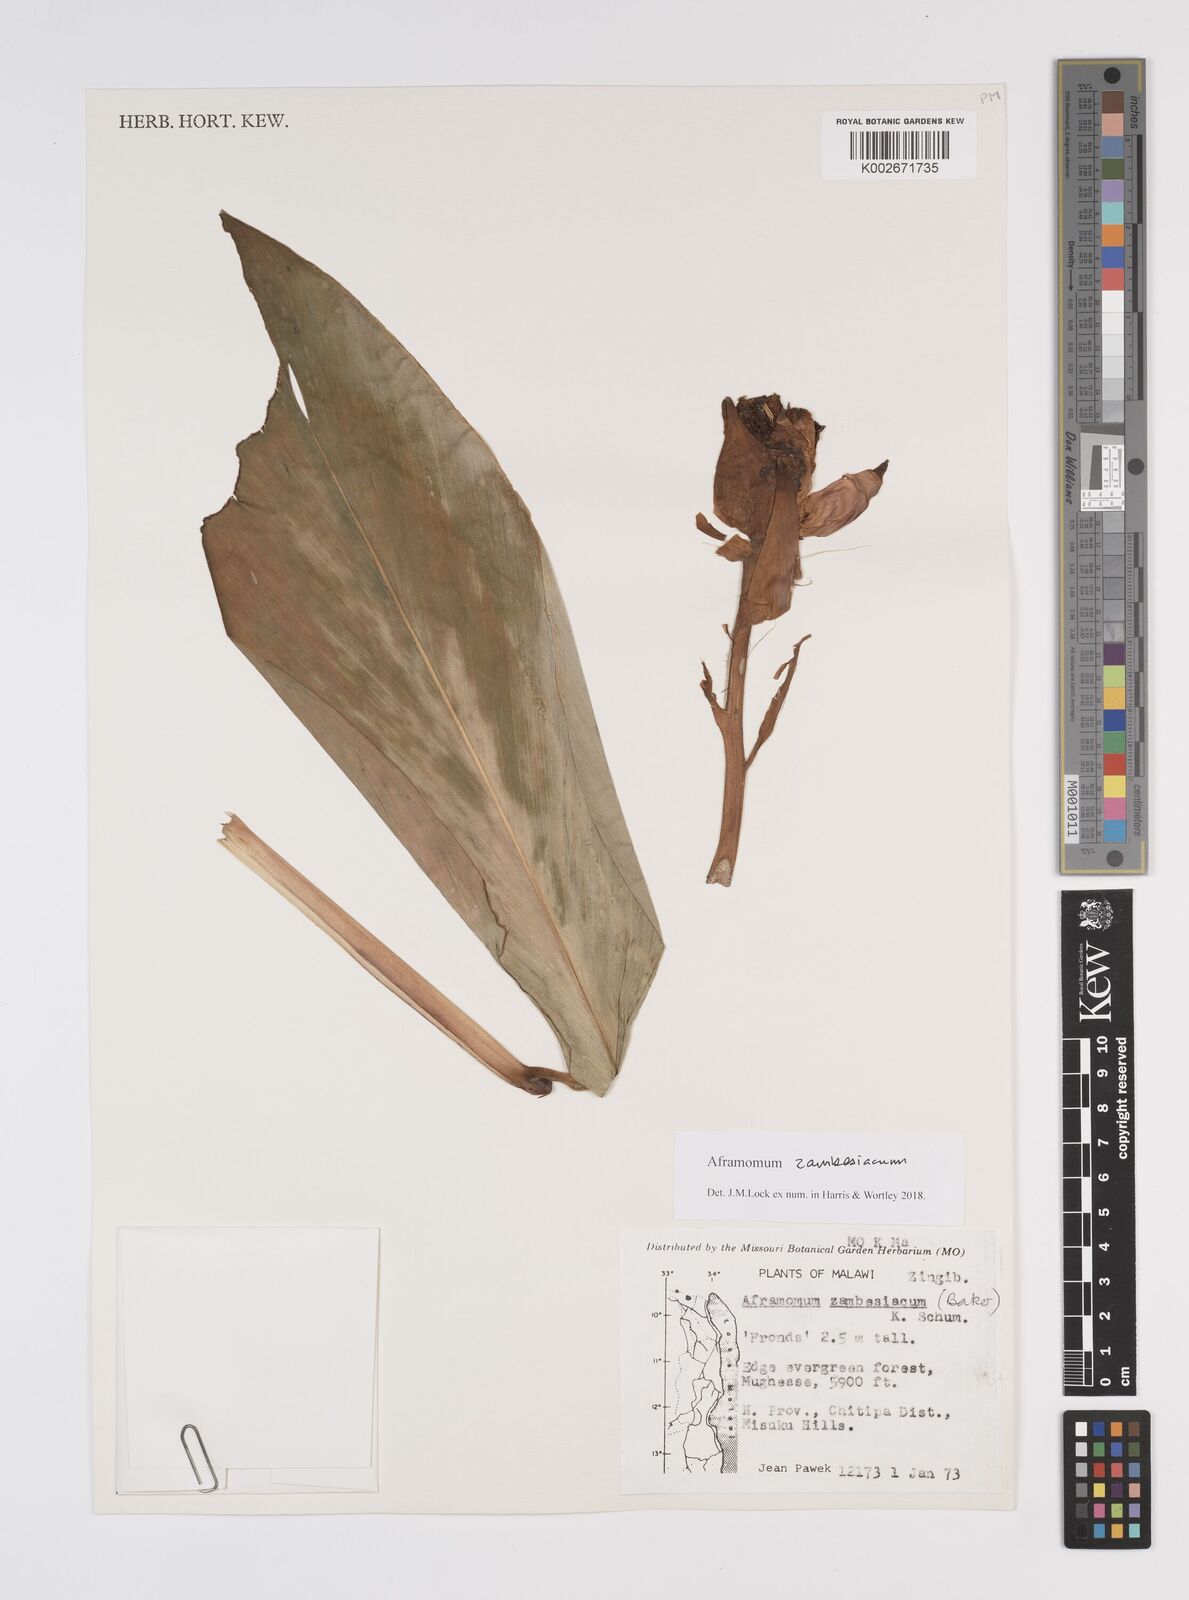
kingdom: Plantae
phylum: Tracheophyta
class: Liliopsida
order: Zingiberales
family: Zingiberaceae
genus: Aframomum
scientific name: Aframomum zambesiacum
